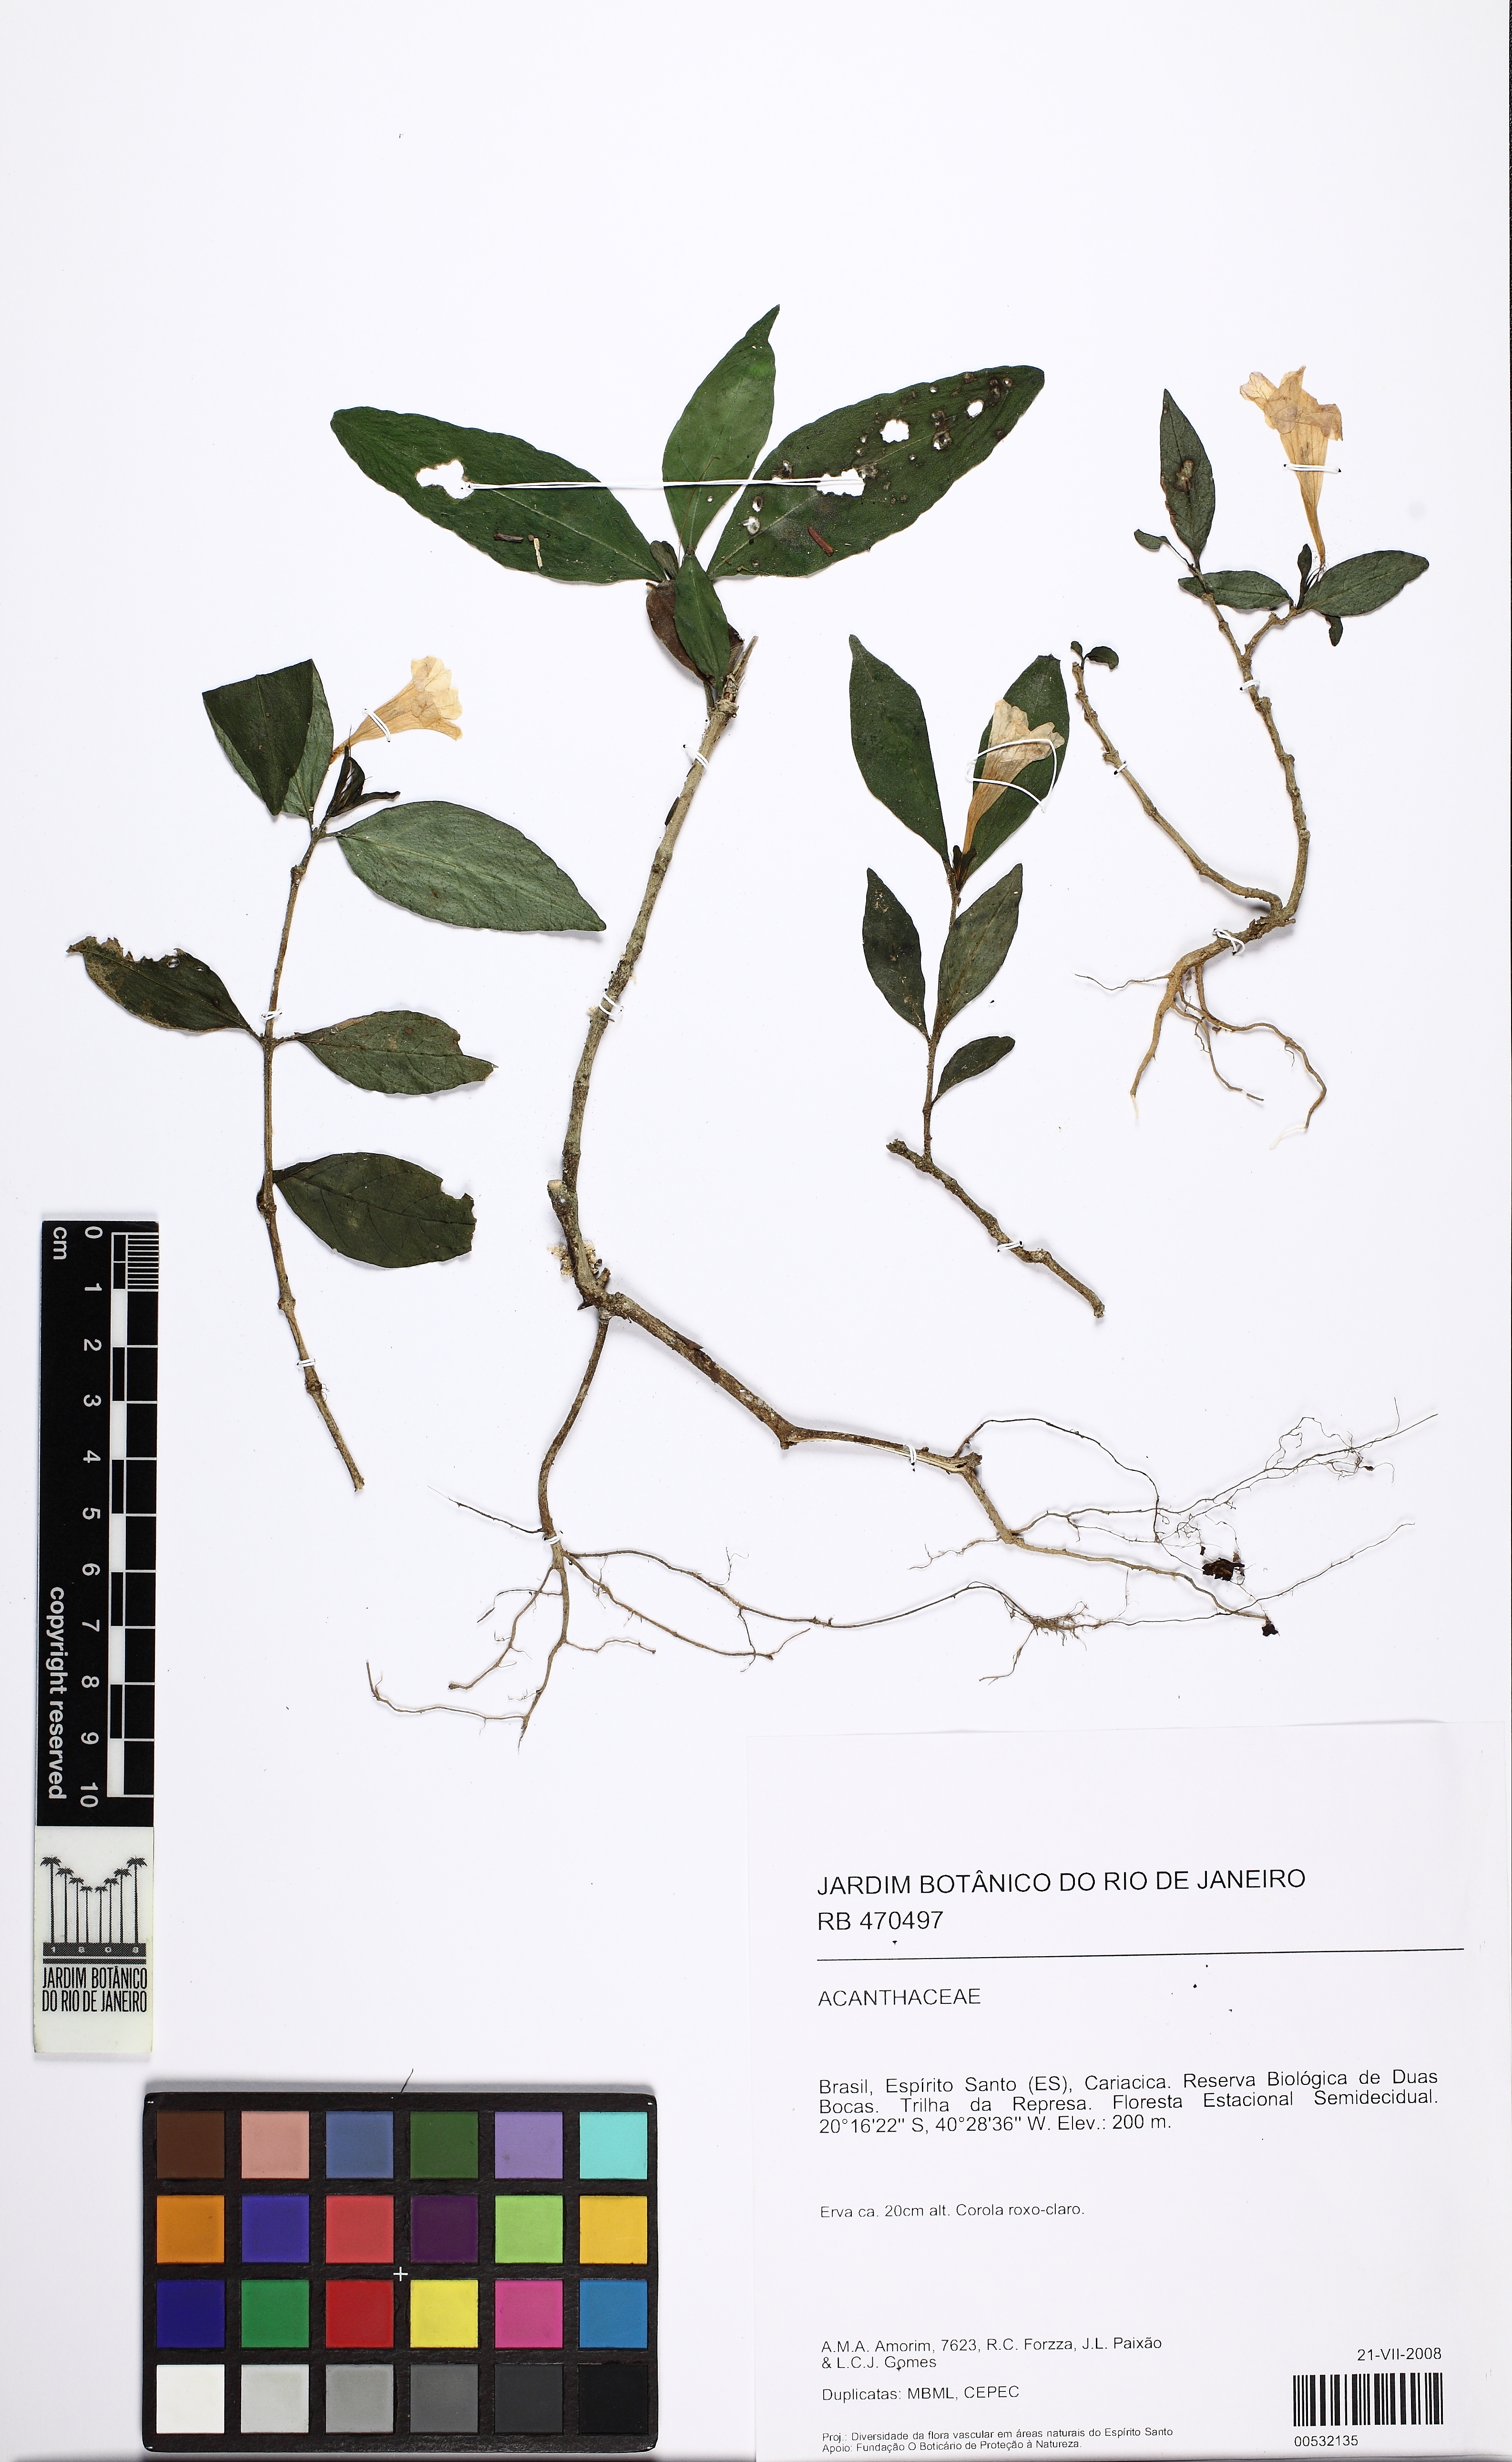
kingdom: Plantae
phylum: Tracheophyta
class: Magnoliopsida
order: Lamiales
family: Acanthaceae
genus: Ruellia
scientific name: Ruellia solitaria
